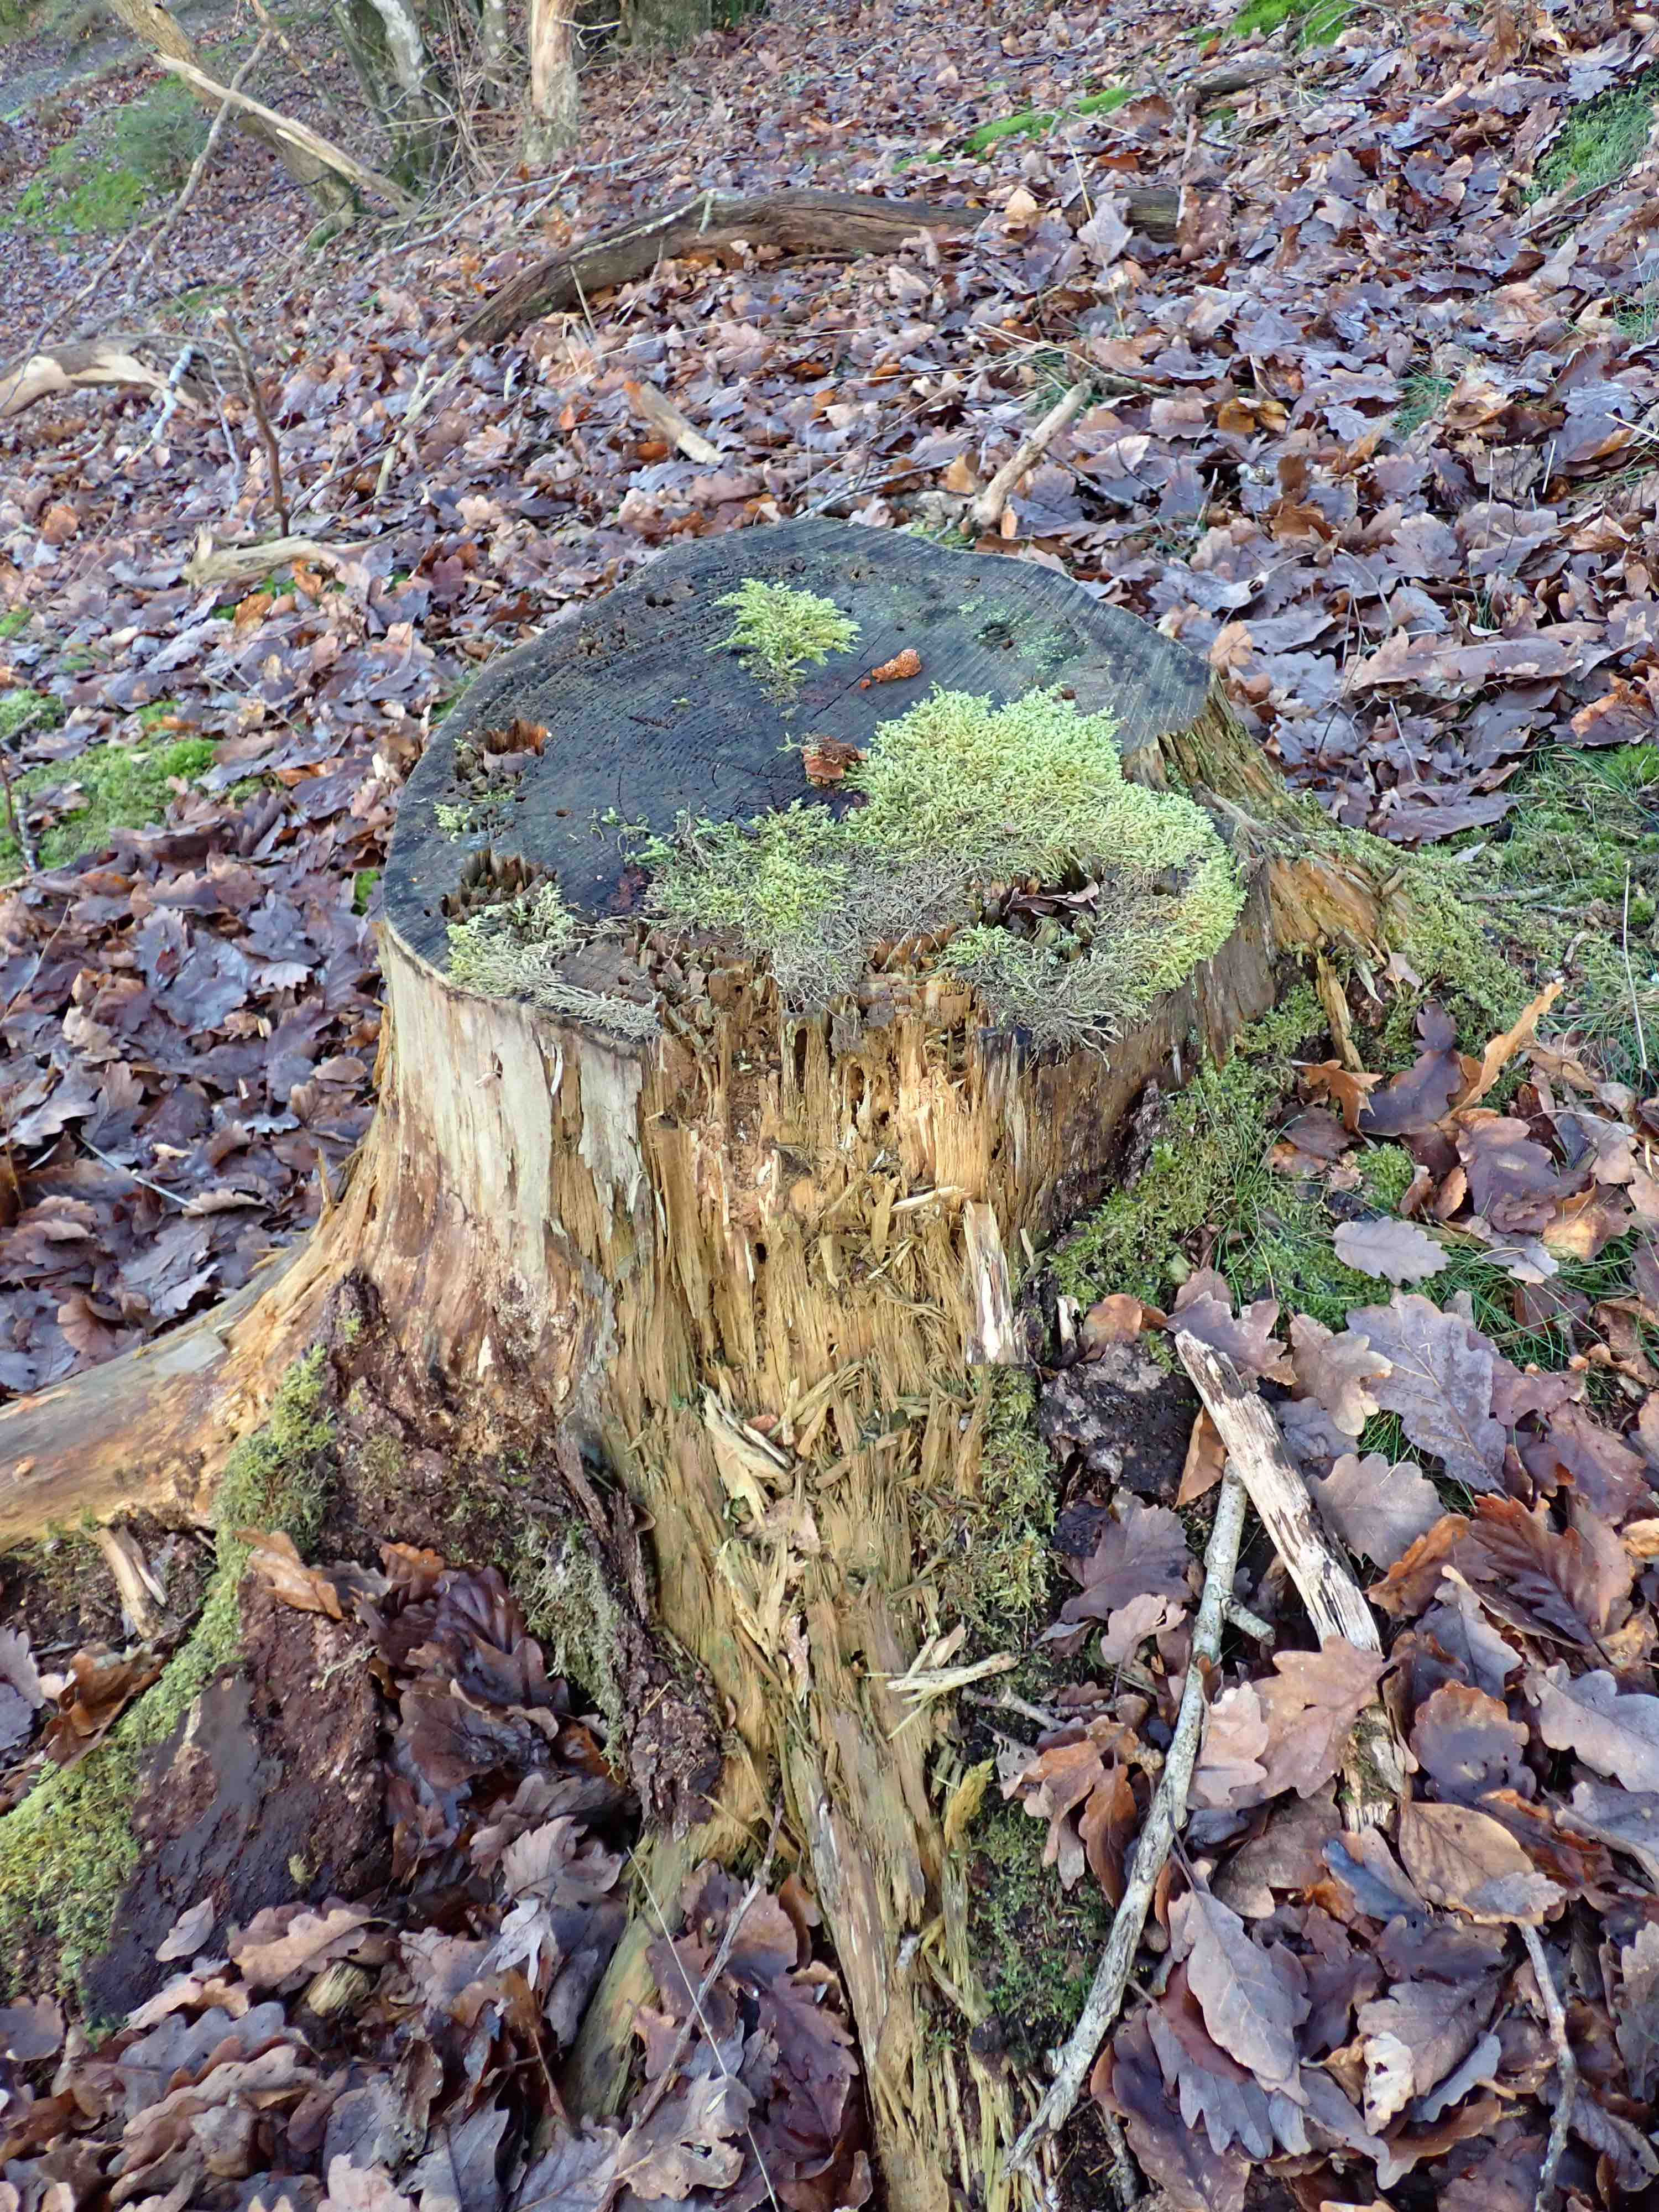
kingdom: Fungi
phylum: Basidiomycota
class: Agaricomycetes
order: Gloeophyllales
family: Gloeophyllaceae
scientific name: Gloeophyllaceae
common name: korkhatfamilien
